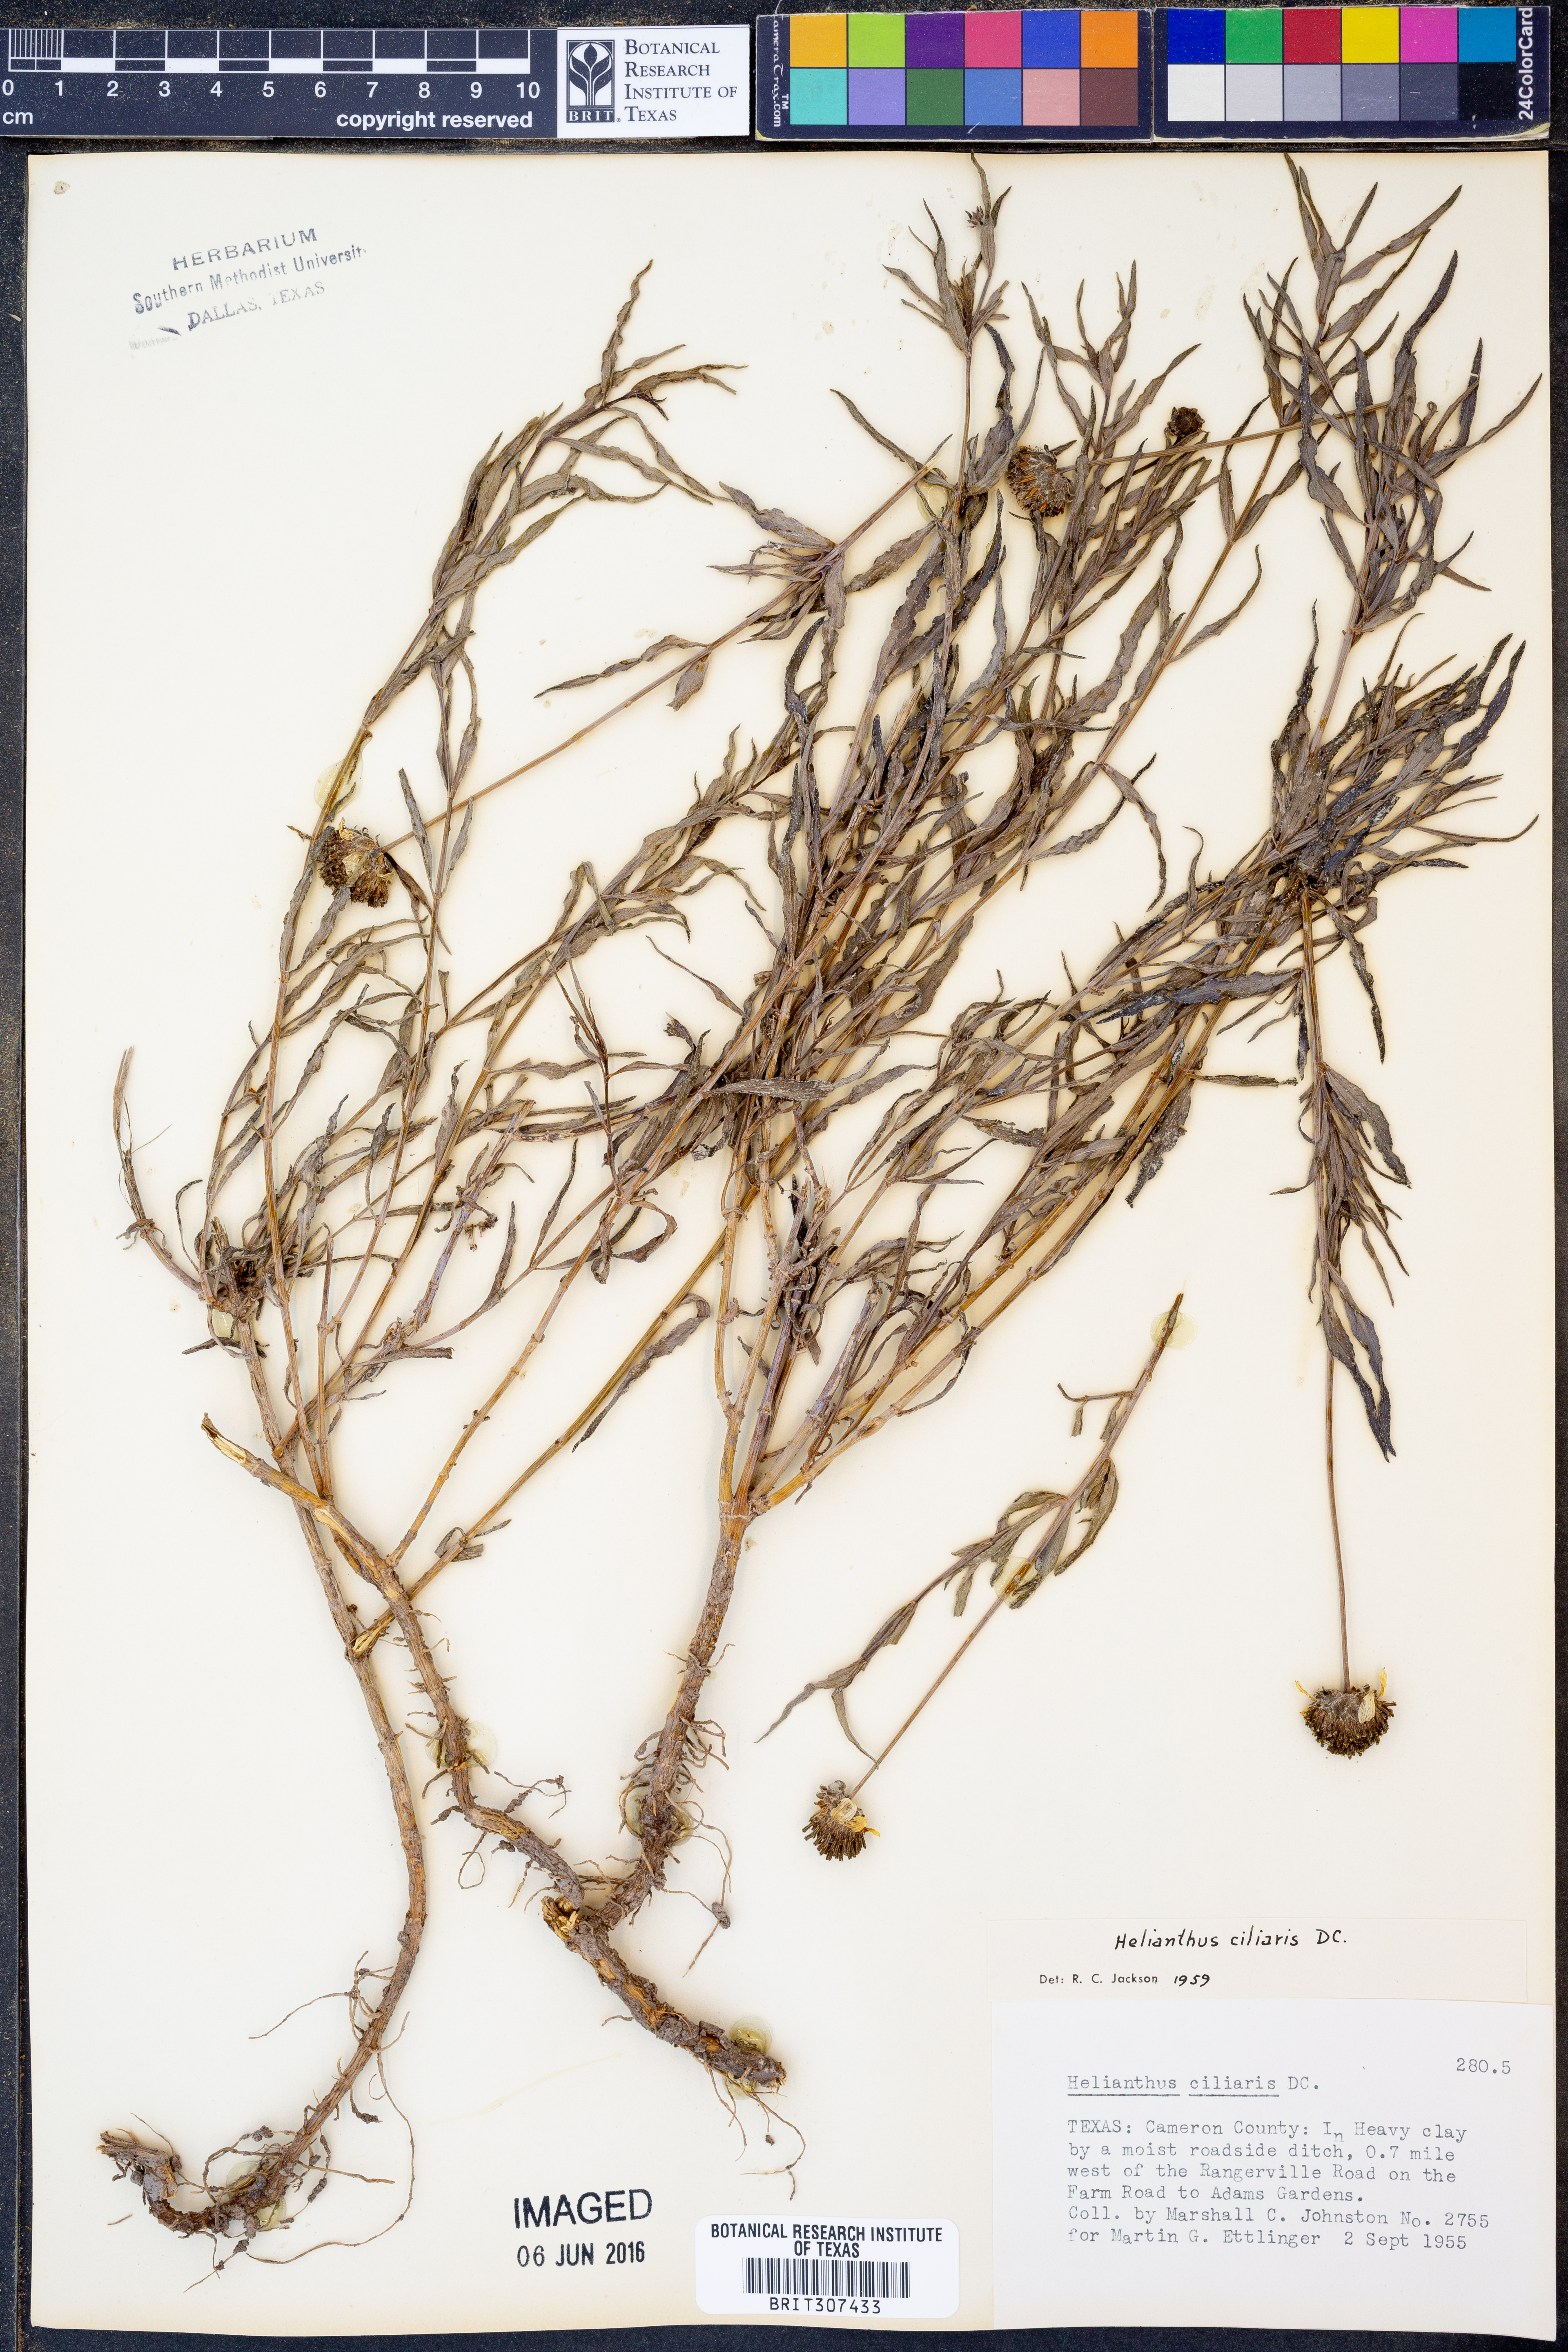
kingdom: Plantae
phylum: Tracheophyta
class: Magnoliopsida
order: Asterales
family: Asteraceae
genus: Helianthus
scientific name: Helianthus ciliaris
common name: Texas blueweed
